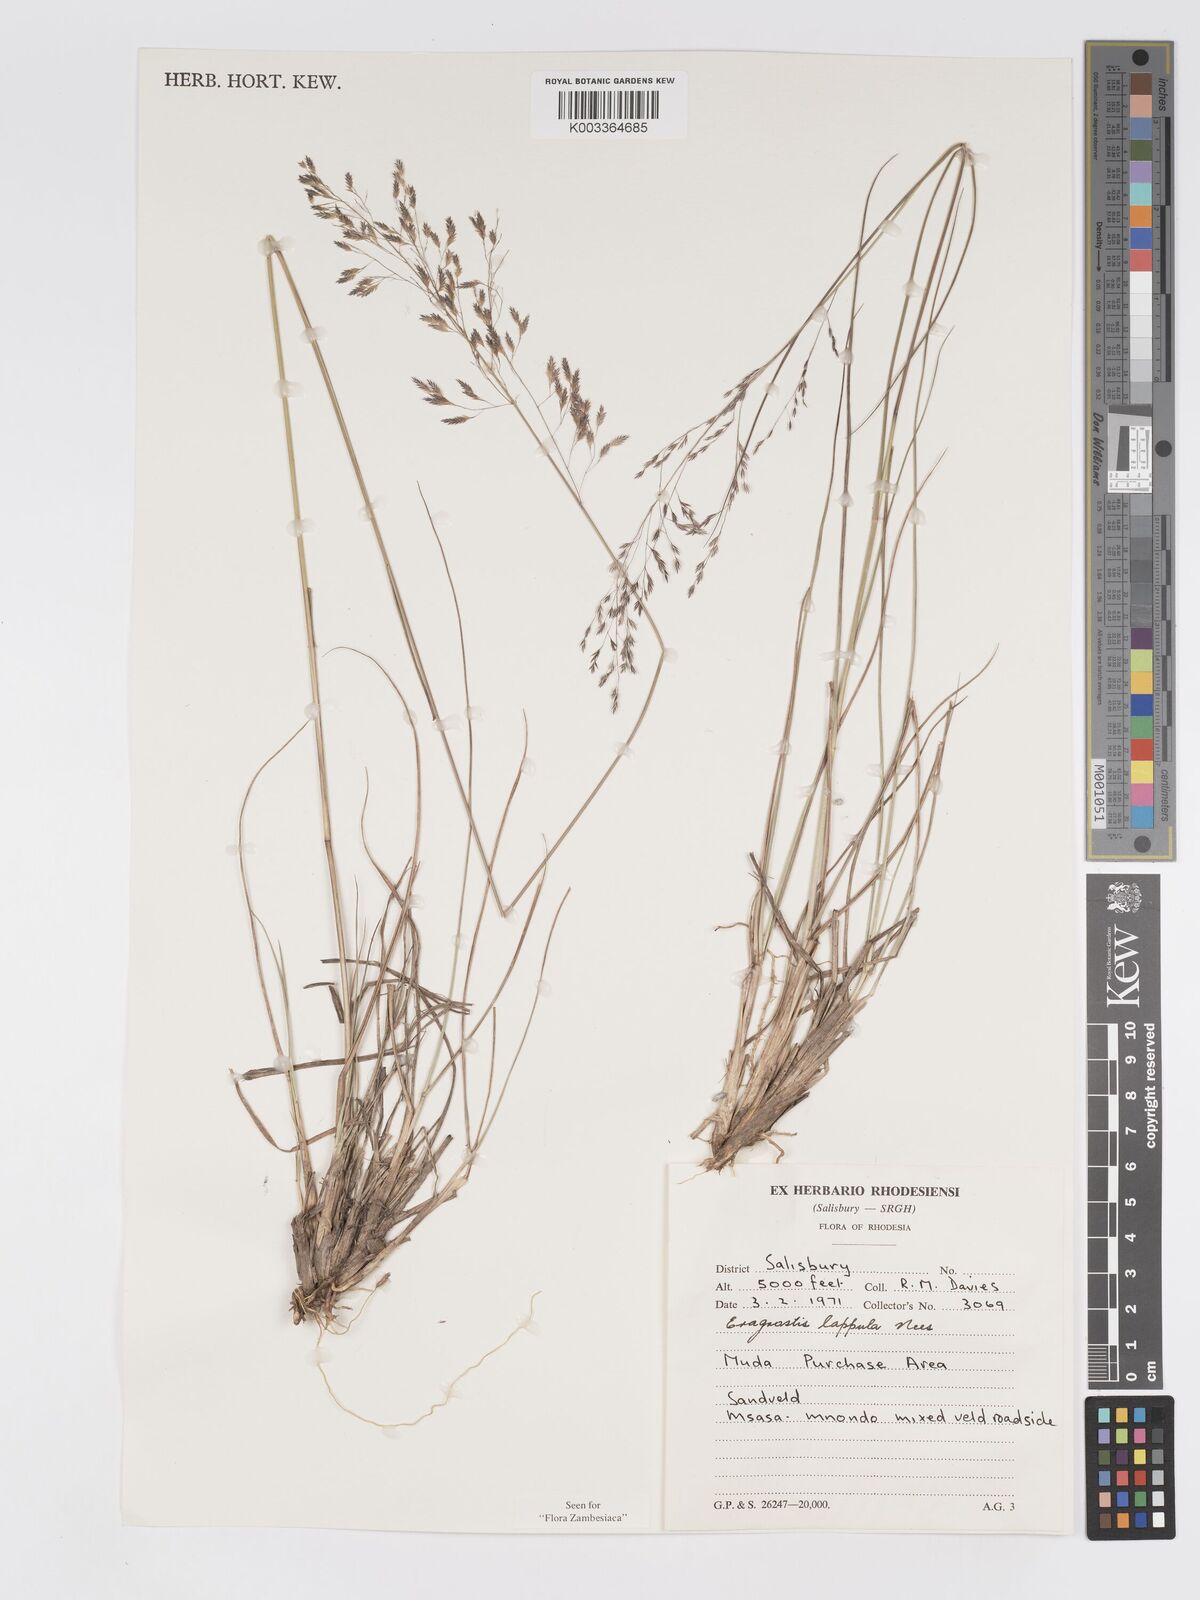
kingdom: Plantae
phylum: Tracheophyta
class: Liliopsida
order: Poales
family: Poaceae
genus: Eragrostis
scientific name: Eragrostis lappula
